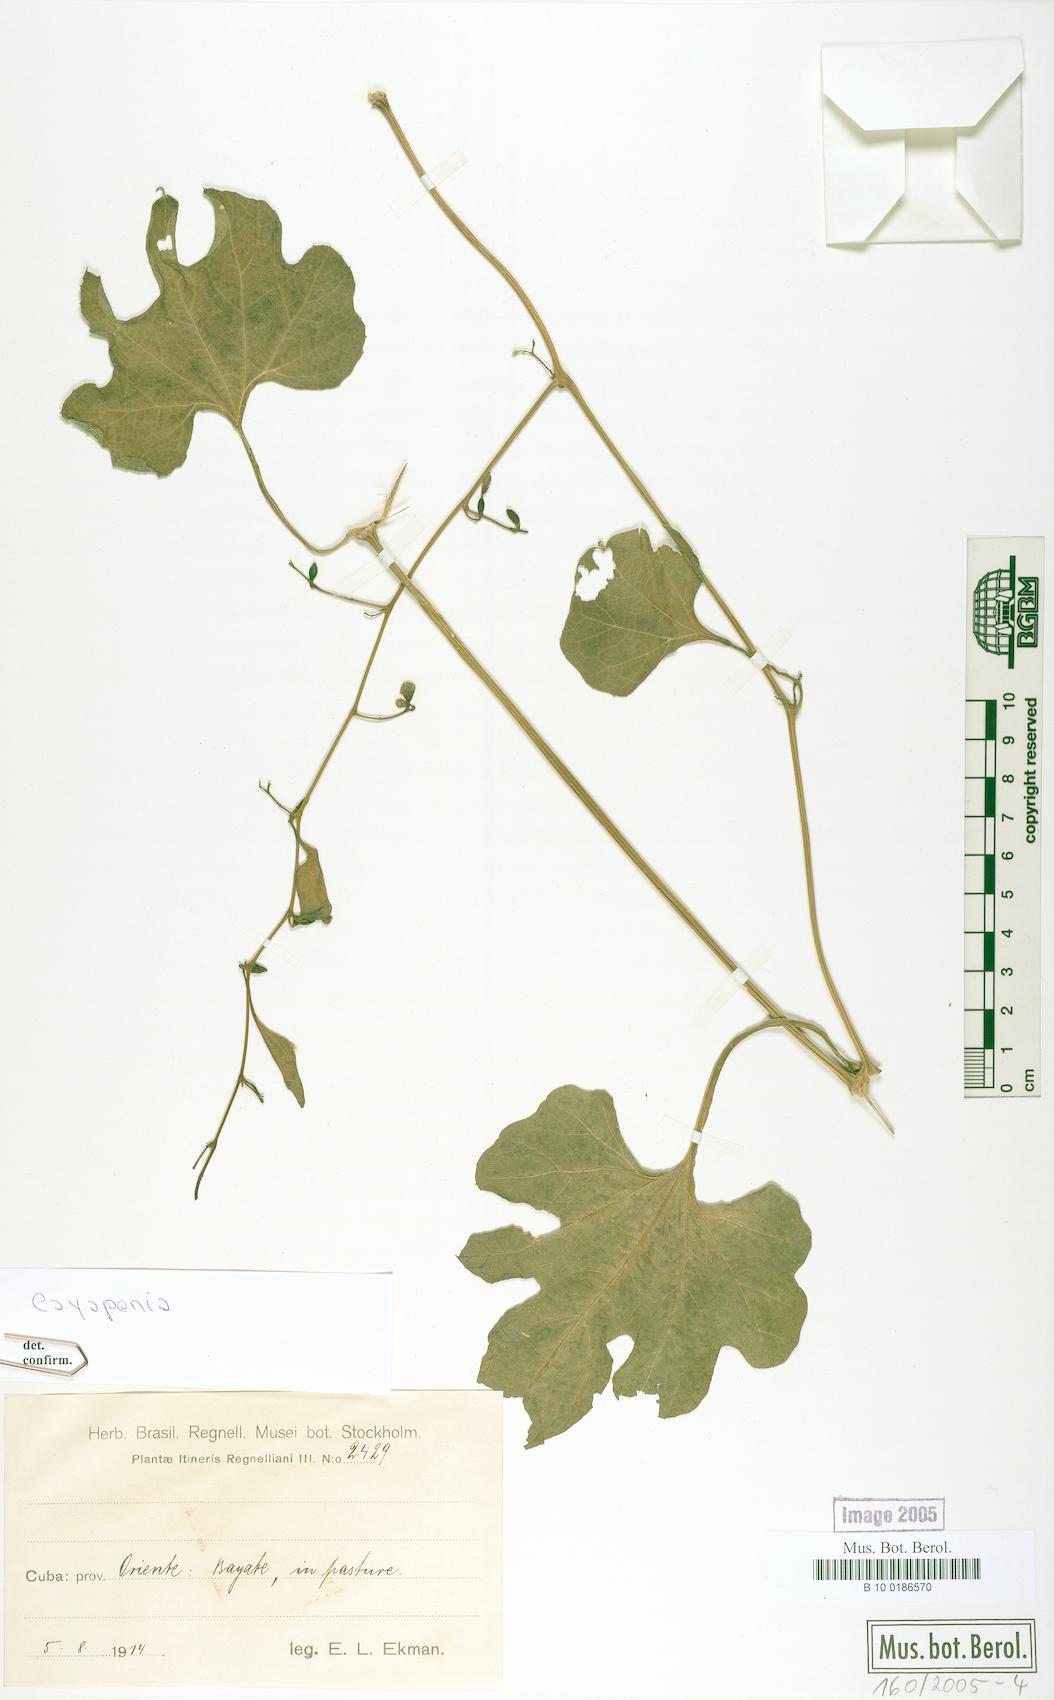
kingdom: Plantae
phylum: Tracheophyta
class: Magnoliopsida
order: Cucurbitales
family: Cucurbitaceae
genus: Cayaponia
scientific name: Cayaponia racemosa
